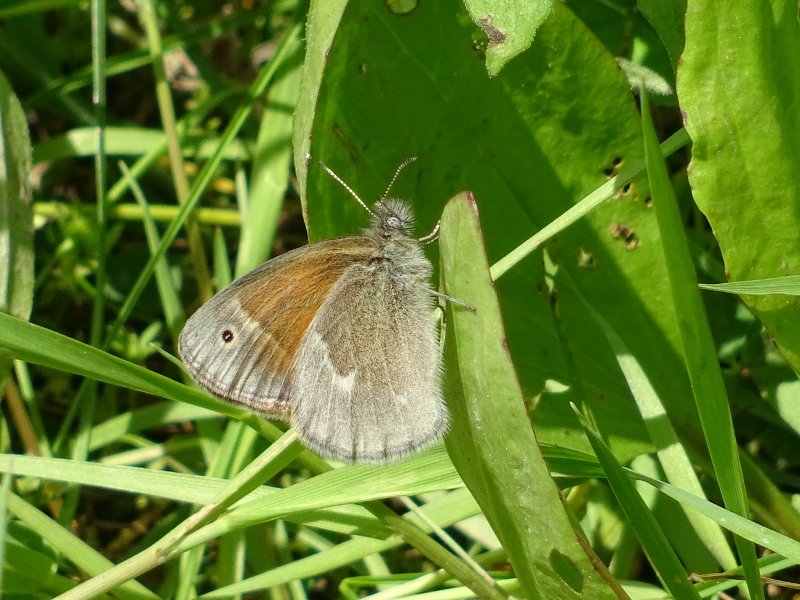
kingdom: Animalia
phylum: Arthropoda
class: Insecta
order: Lepidoptera
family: Nymphalidae
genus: Coenonympha
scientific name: Coenonympha tullia
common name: Large Heath
